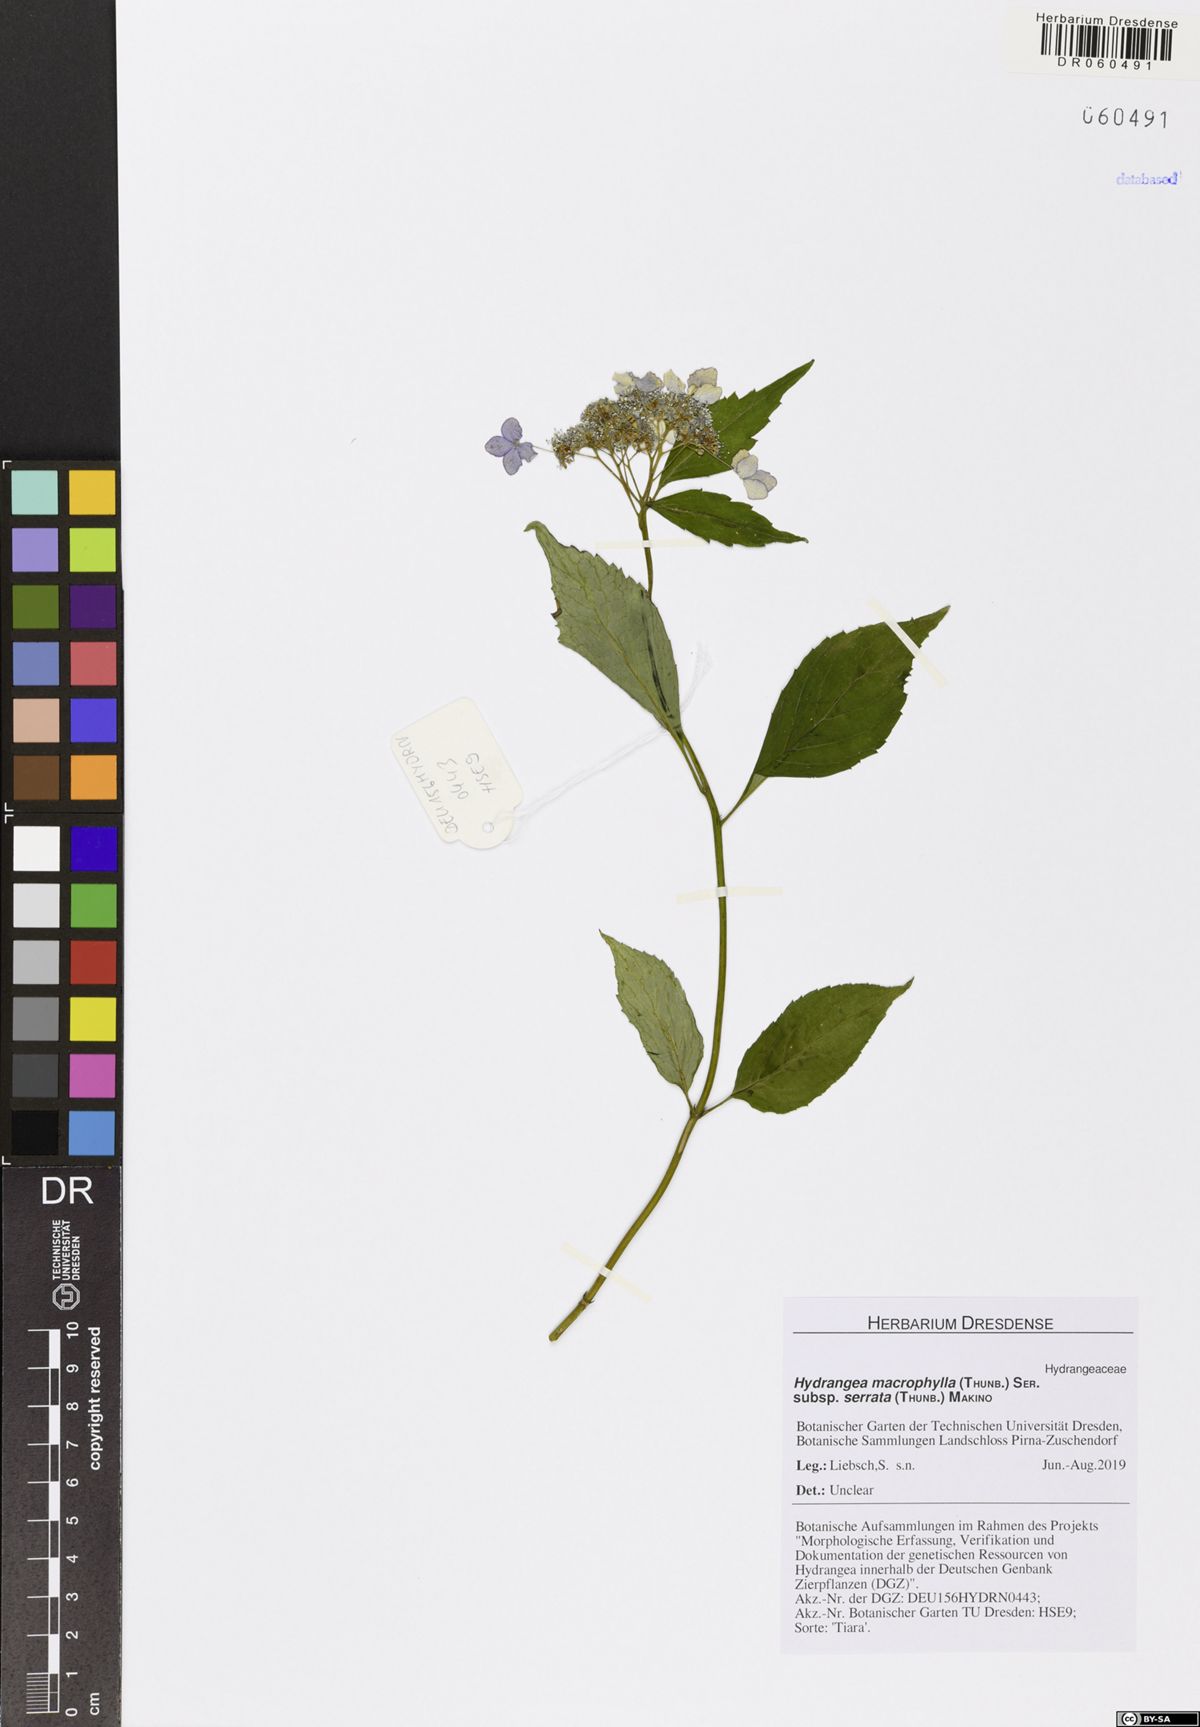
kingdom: Plantae
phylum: Tracheophyta
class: Magnoliopsida
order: Cornales
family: Hydrangeaceae
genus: Hydrangea
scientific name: Hydrangea serrata
